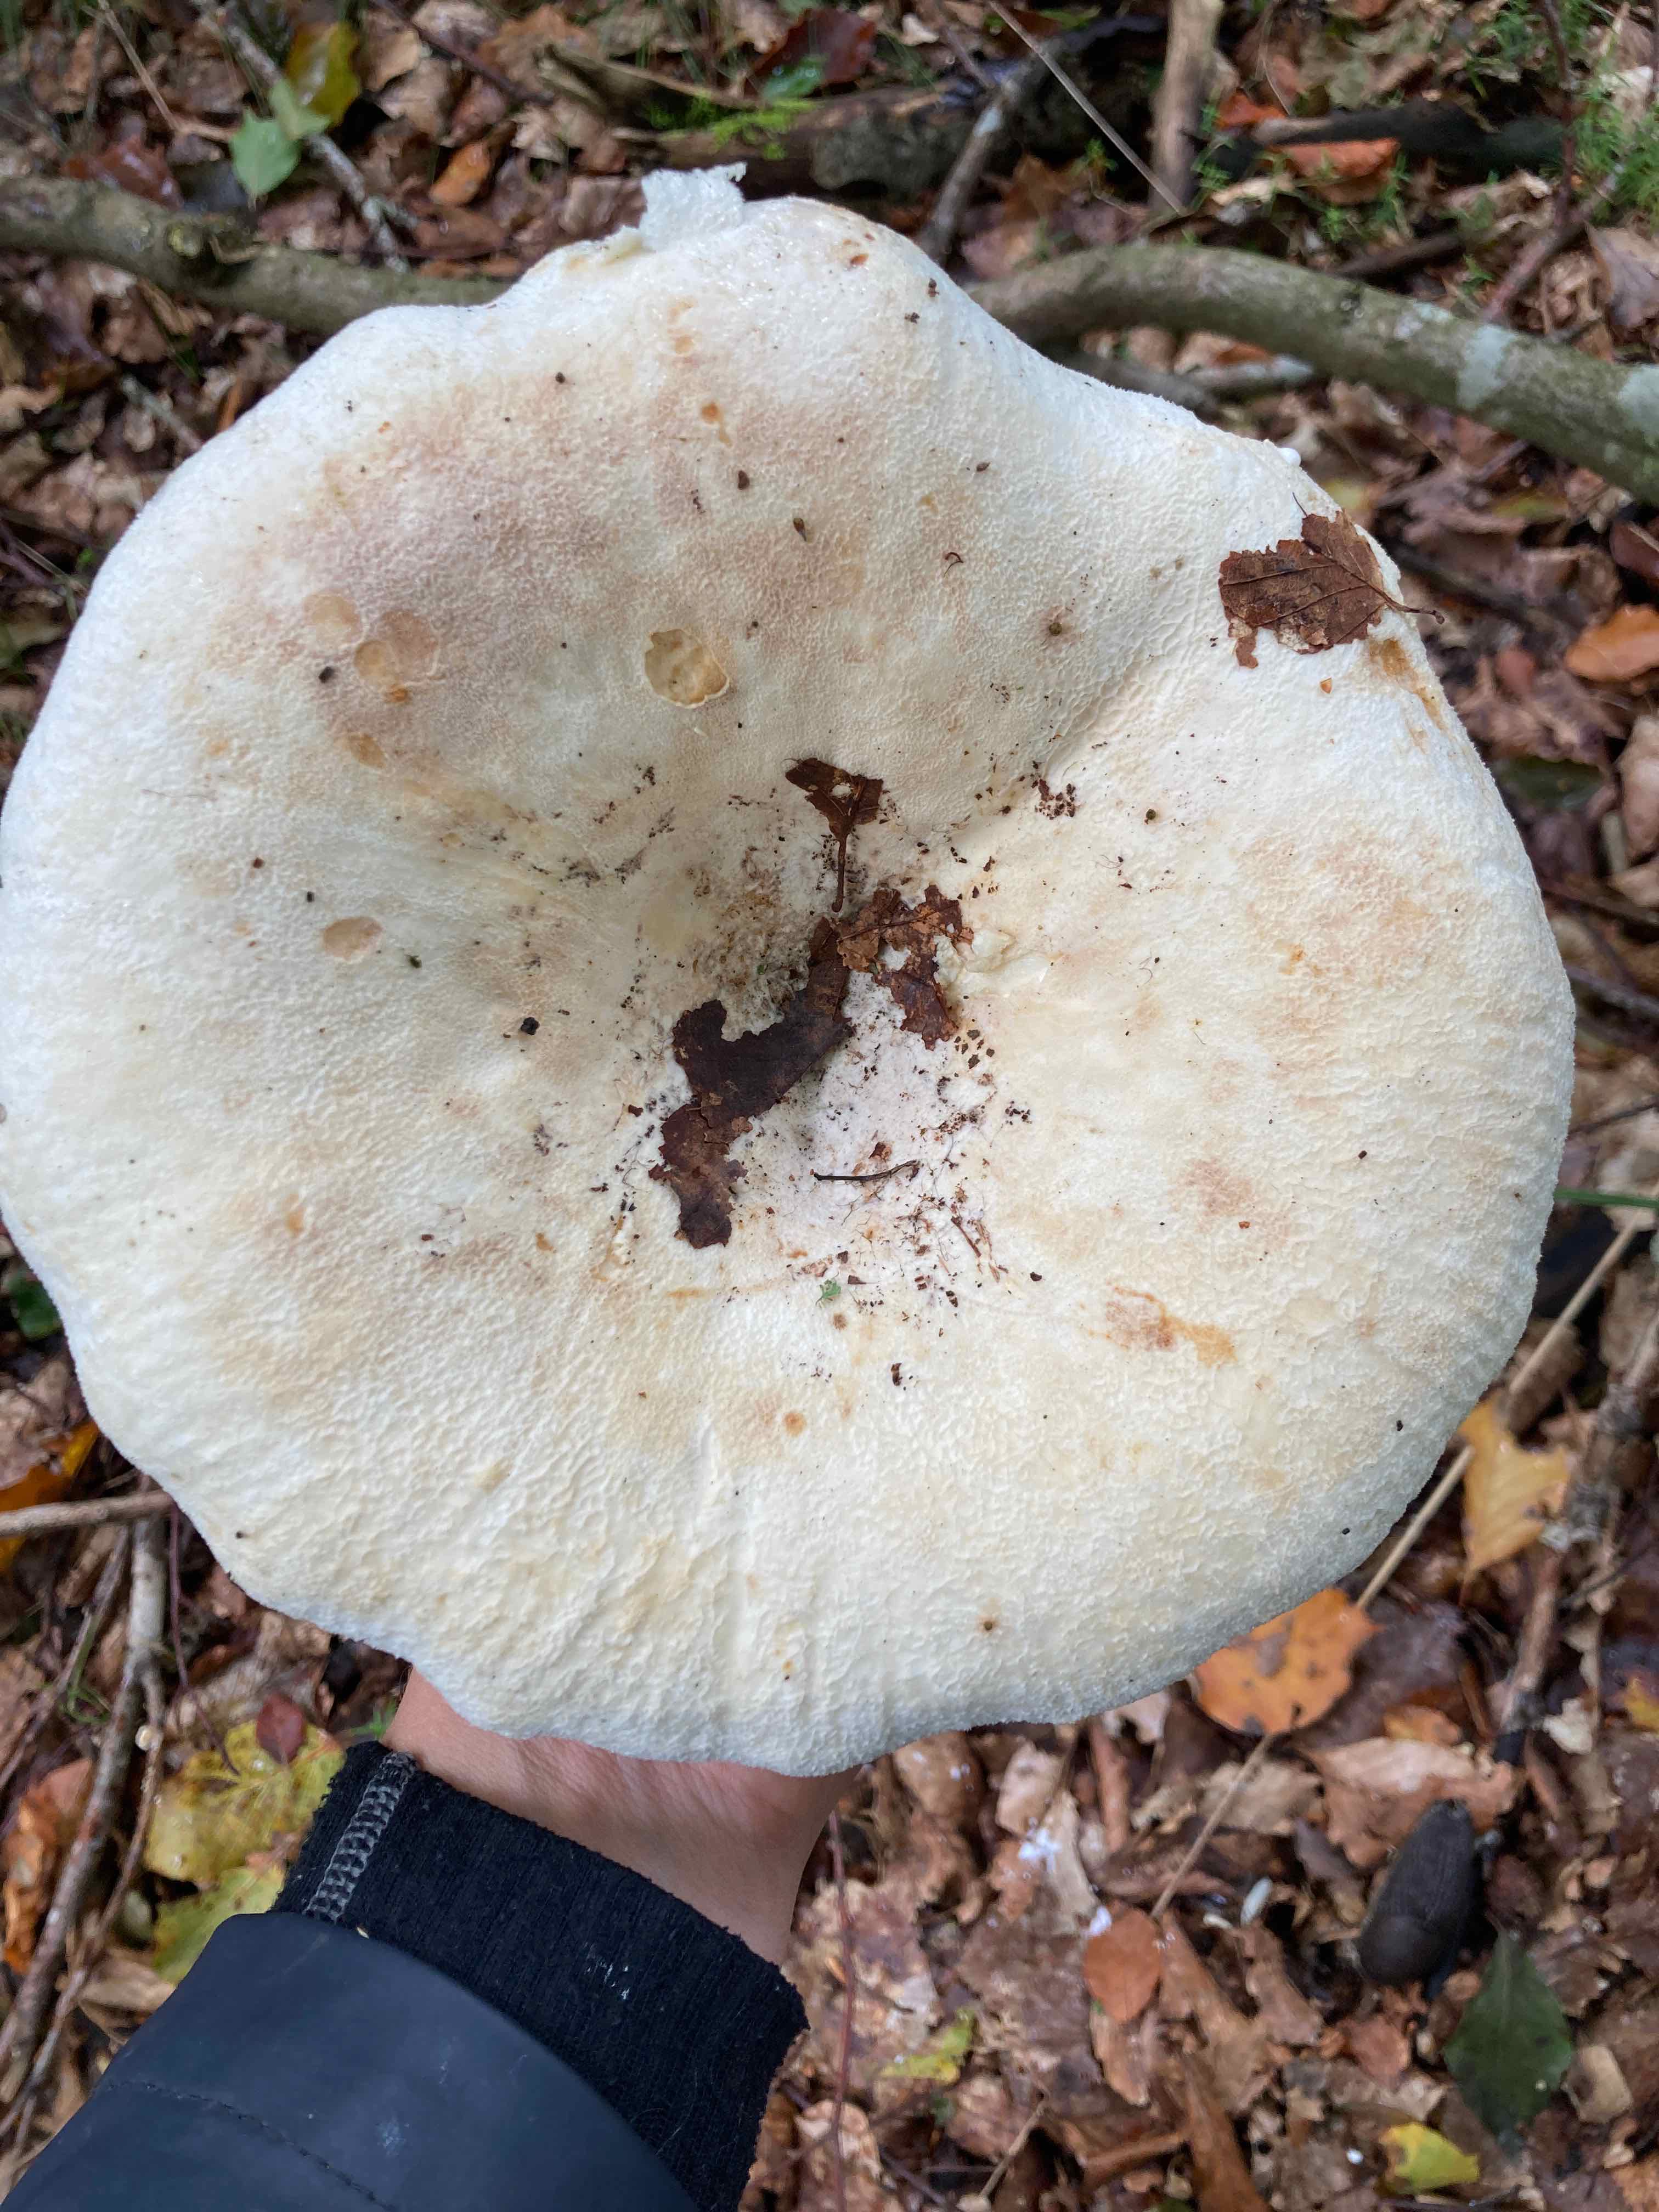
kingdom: Fungi
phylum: Basidiomycota
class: Agaricomycetes
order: Russulales
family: Russulaceae
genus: Lactifluus
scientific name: Lactifluus bertillonii
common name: blødfiltet mælkehat
